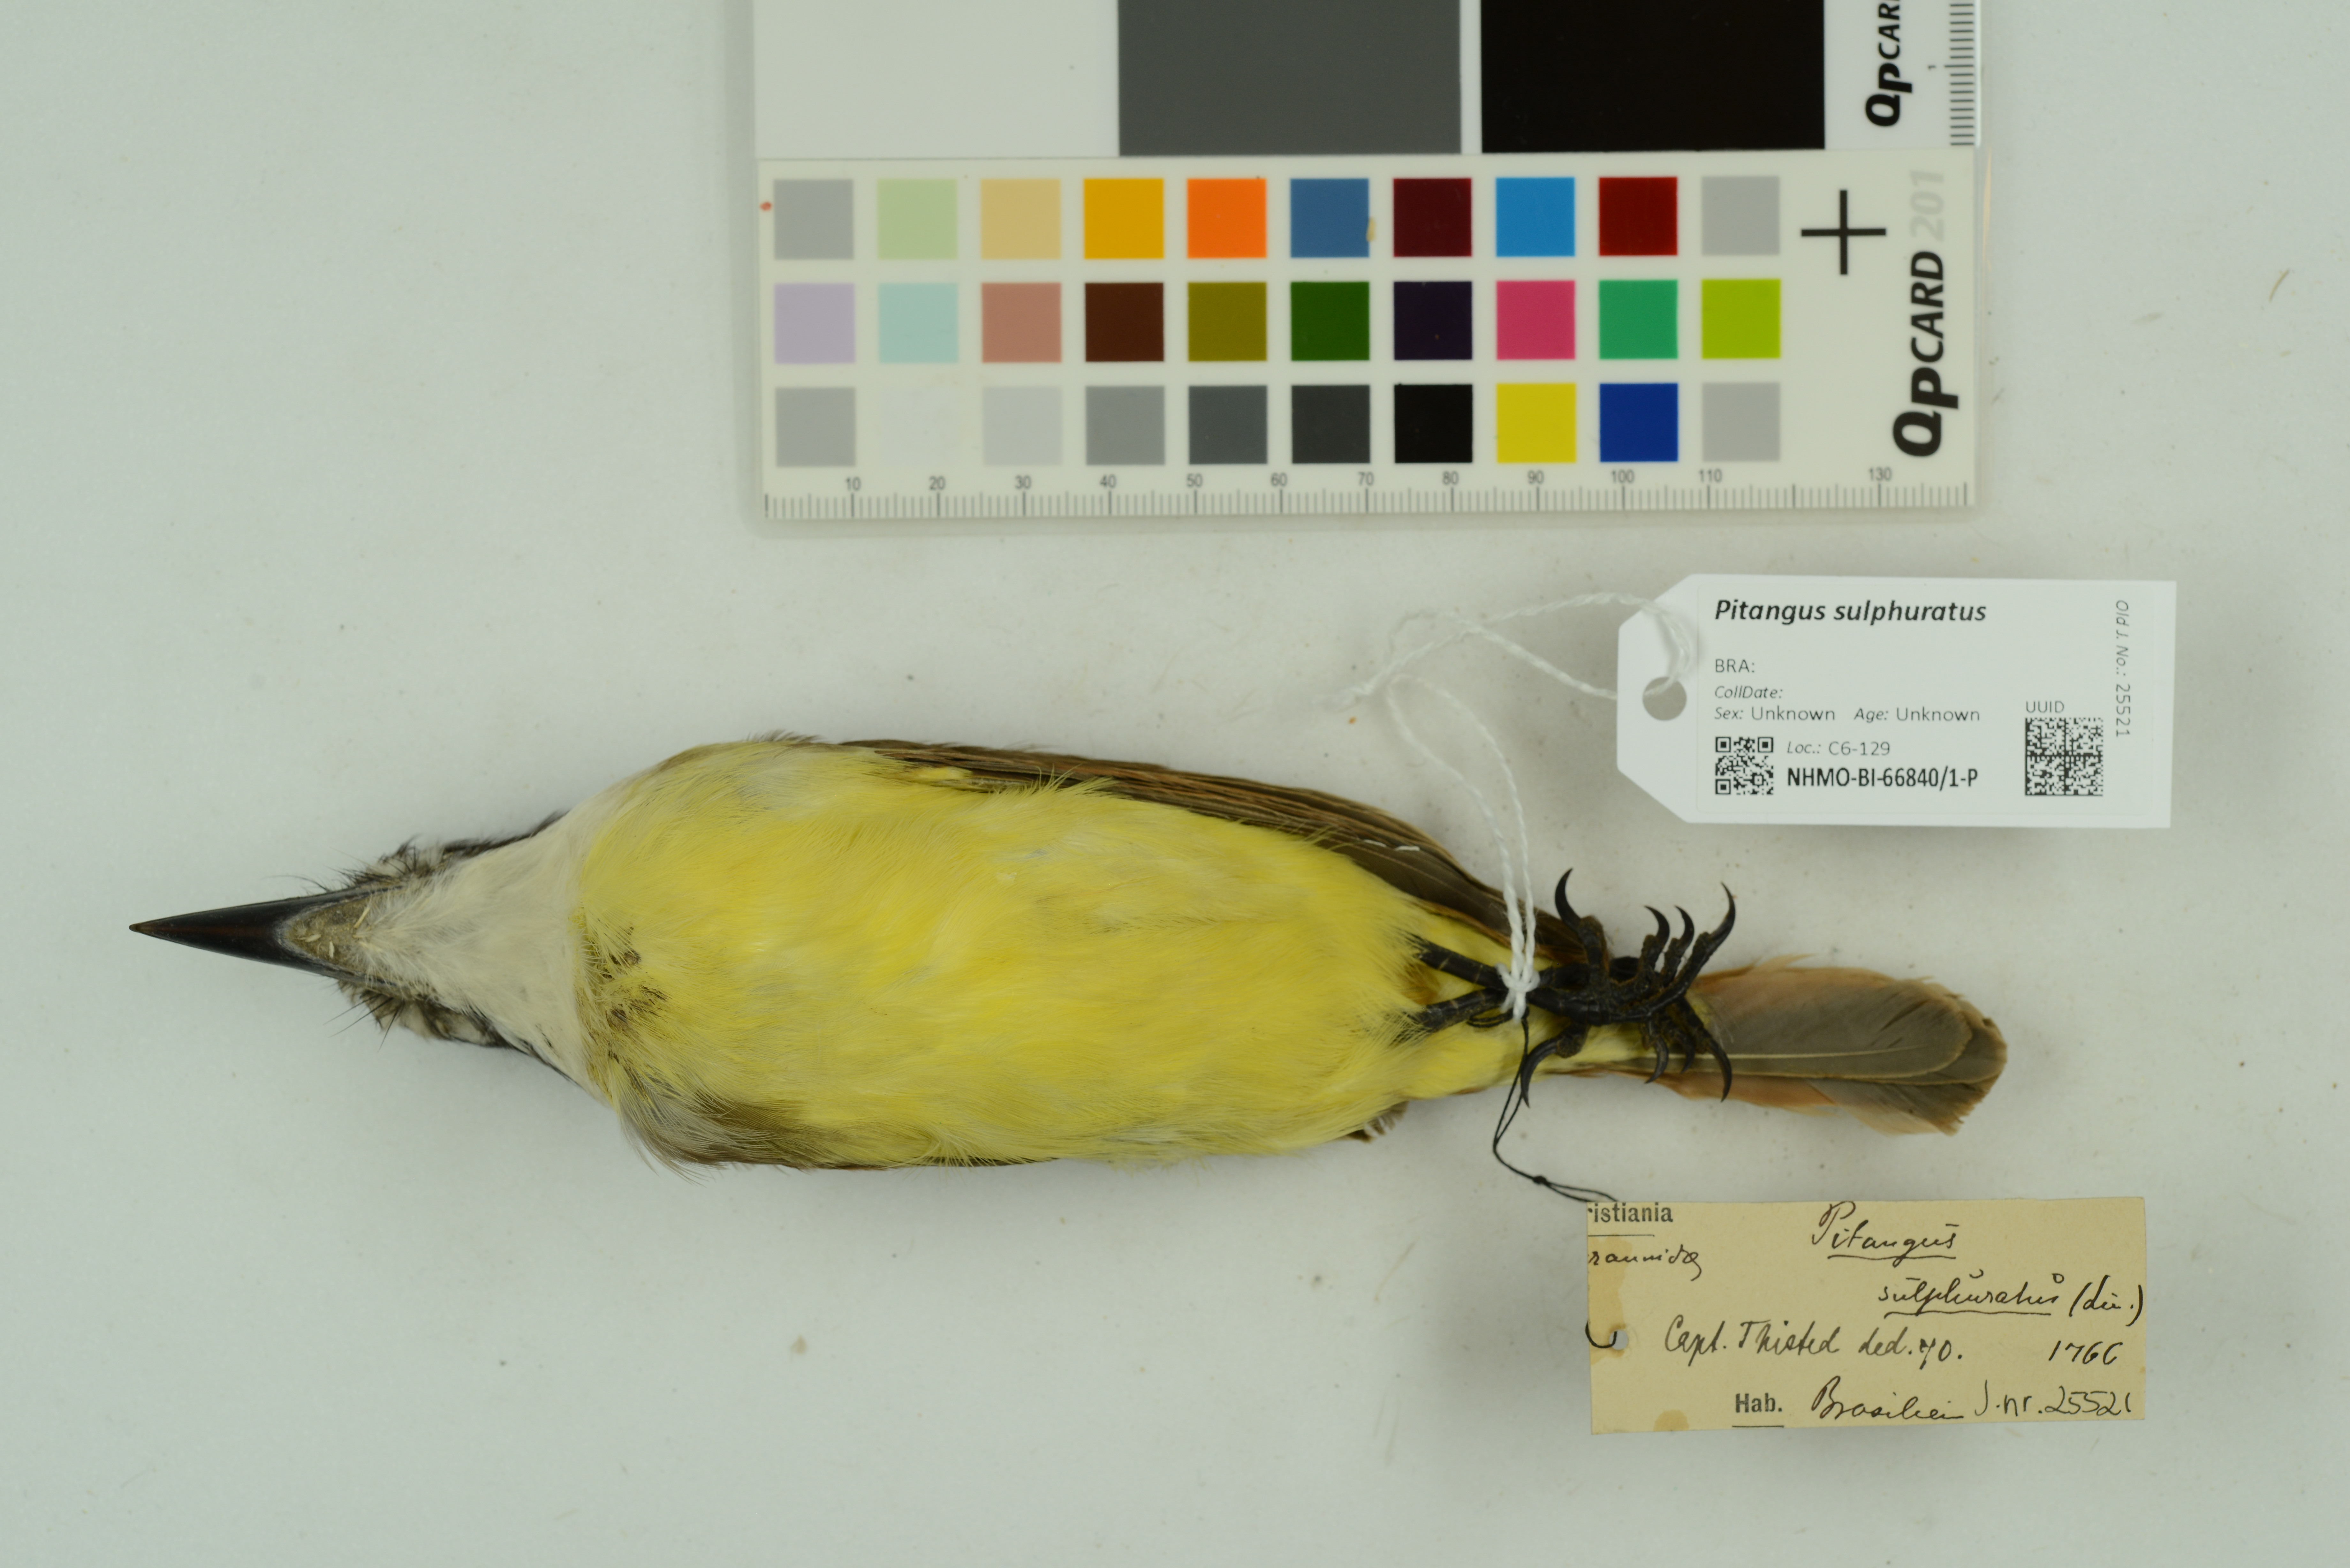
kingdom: Animalia
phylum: Chordata
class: Aves
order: Passeriformes
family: Tyrannidae
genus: Pitangus
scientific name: Pitangus sulphuratus
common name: Great kiskadee
